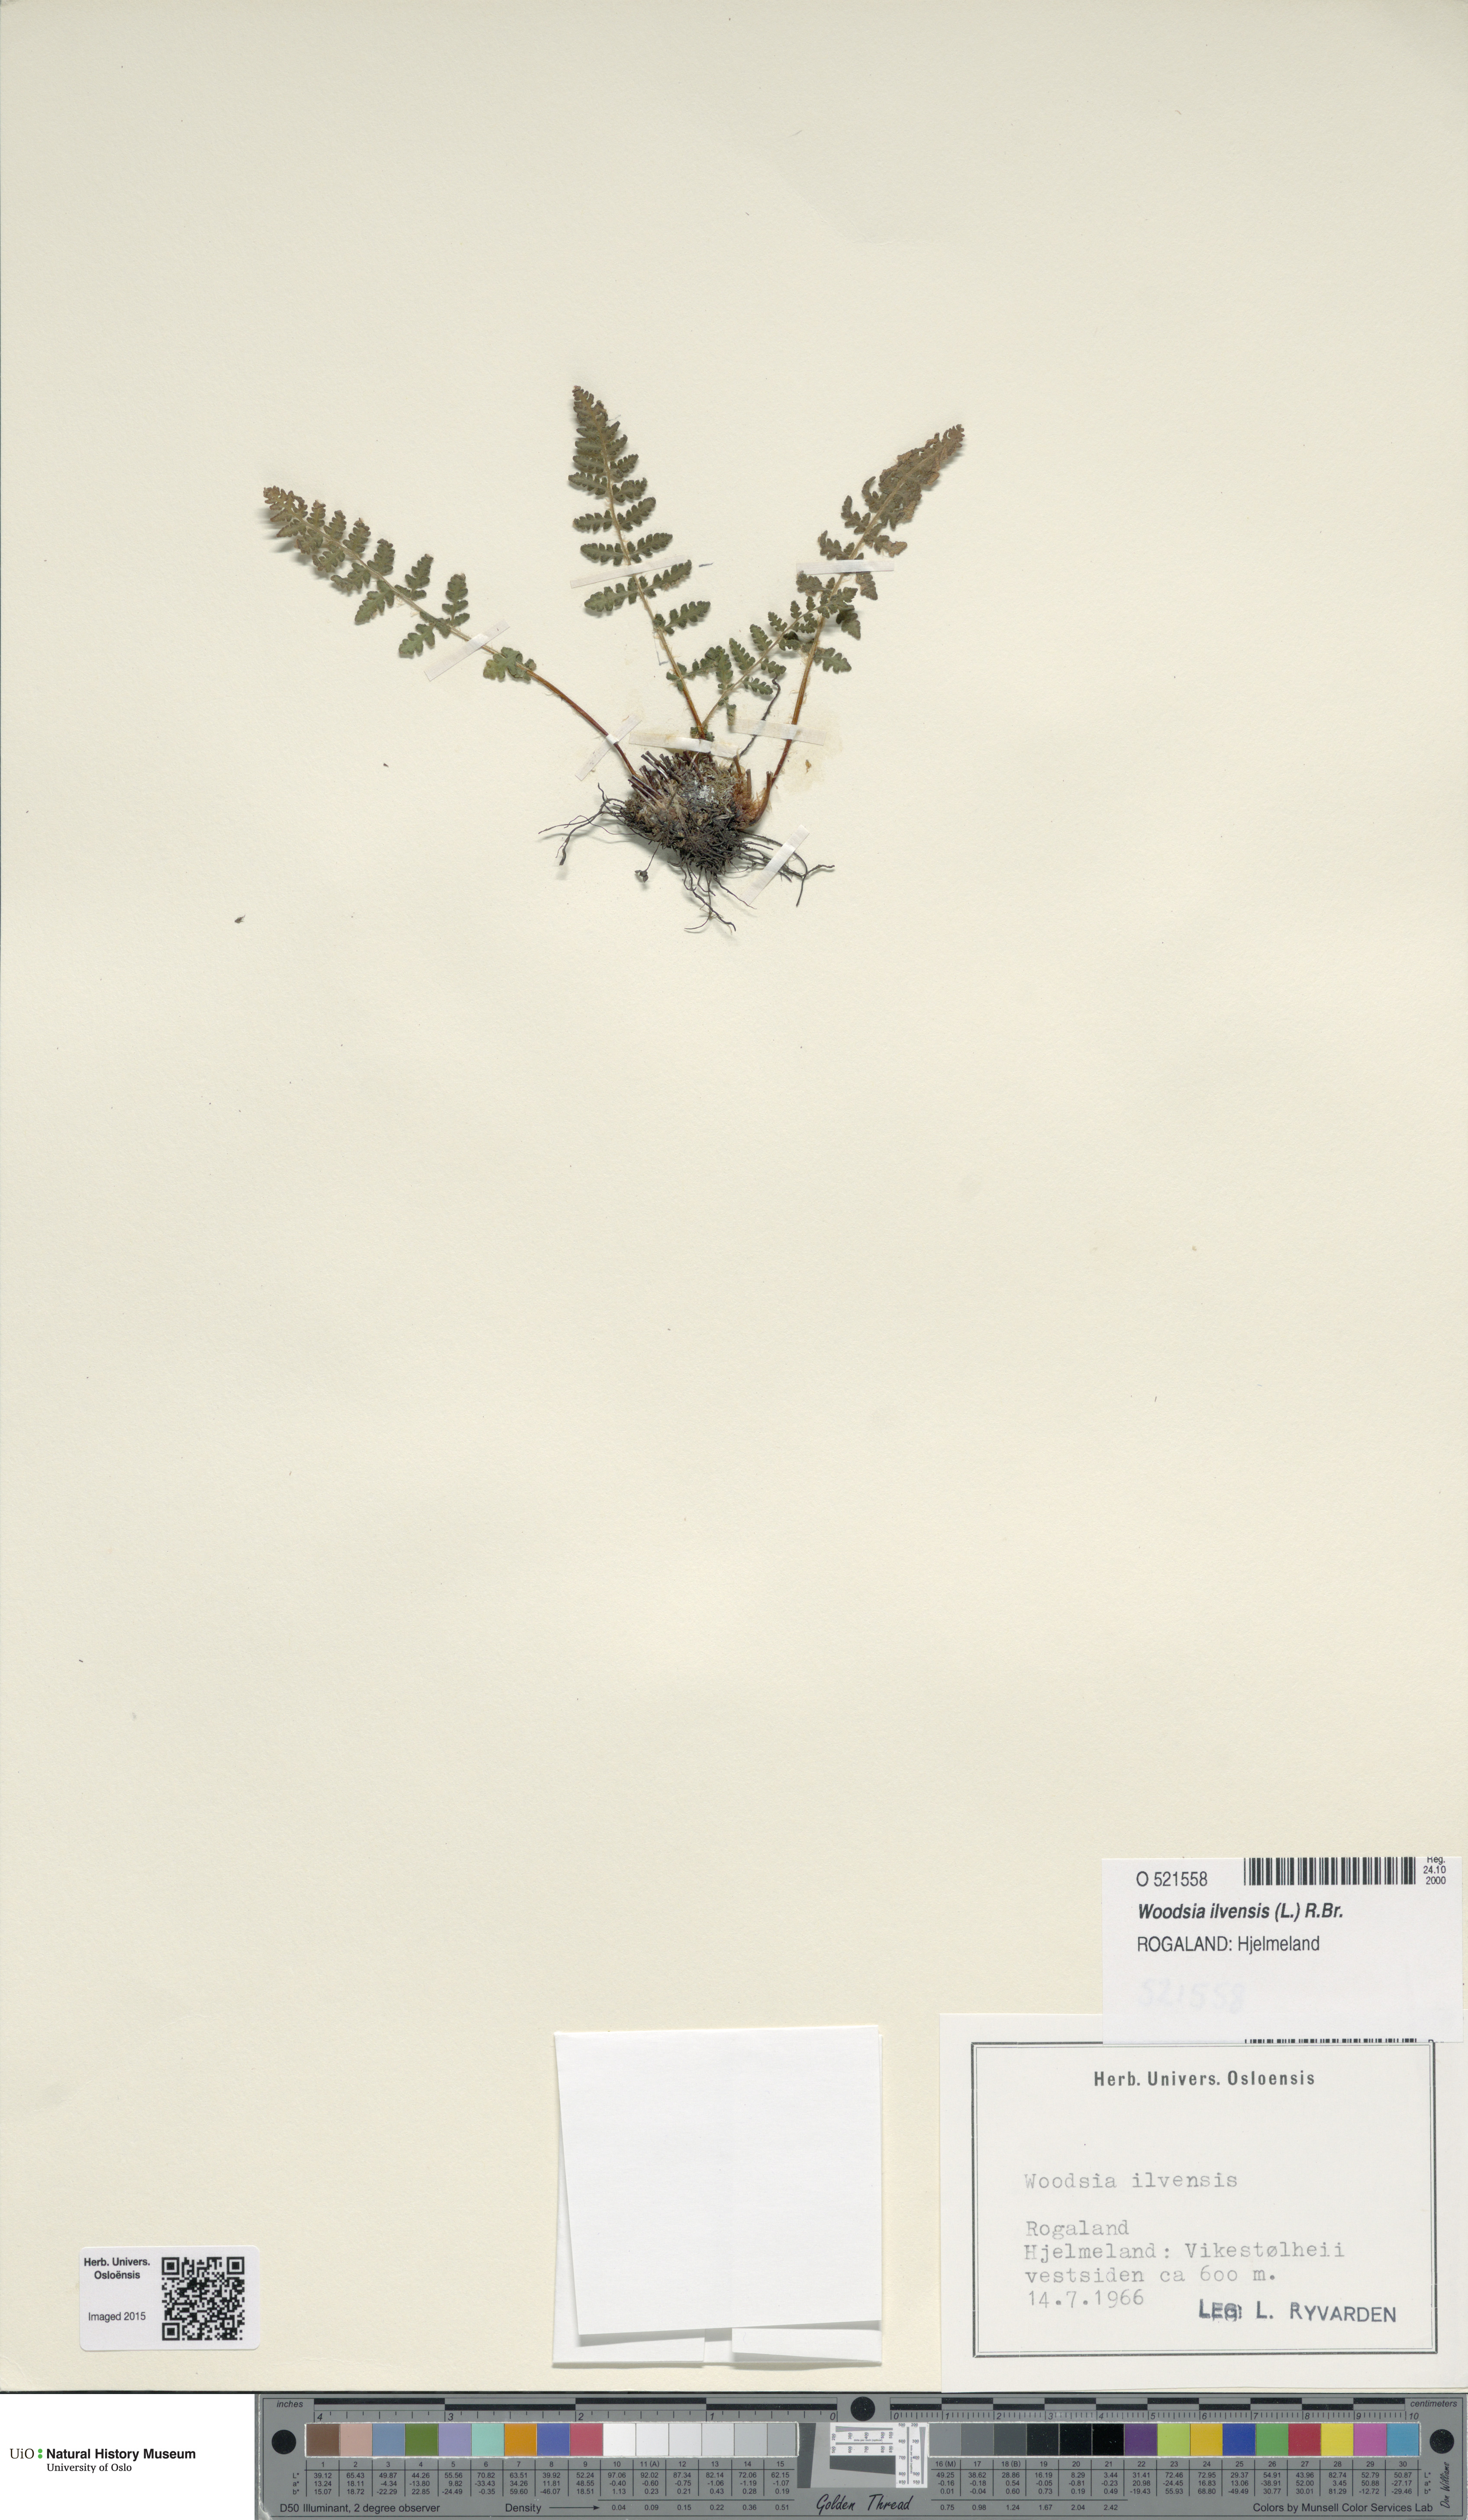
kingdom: Plantae
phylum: Tracheophyta
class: Polypodiopsida
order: Polypodiales
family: Woodsiaceae
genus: Woodsia
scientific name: Woodsia ilvensis
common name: Fragrant woodsia
